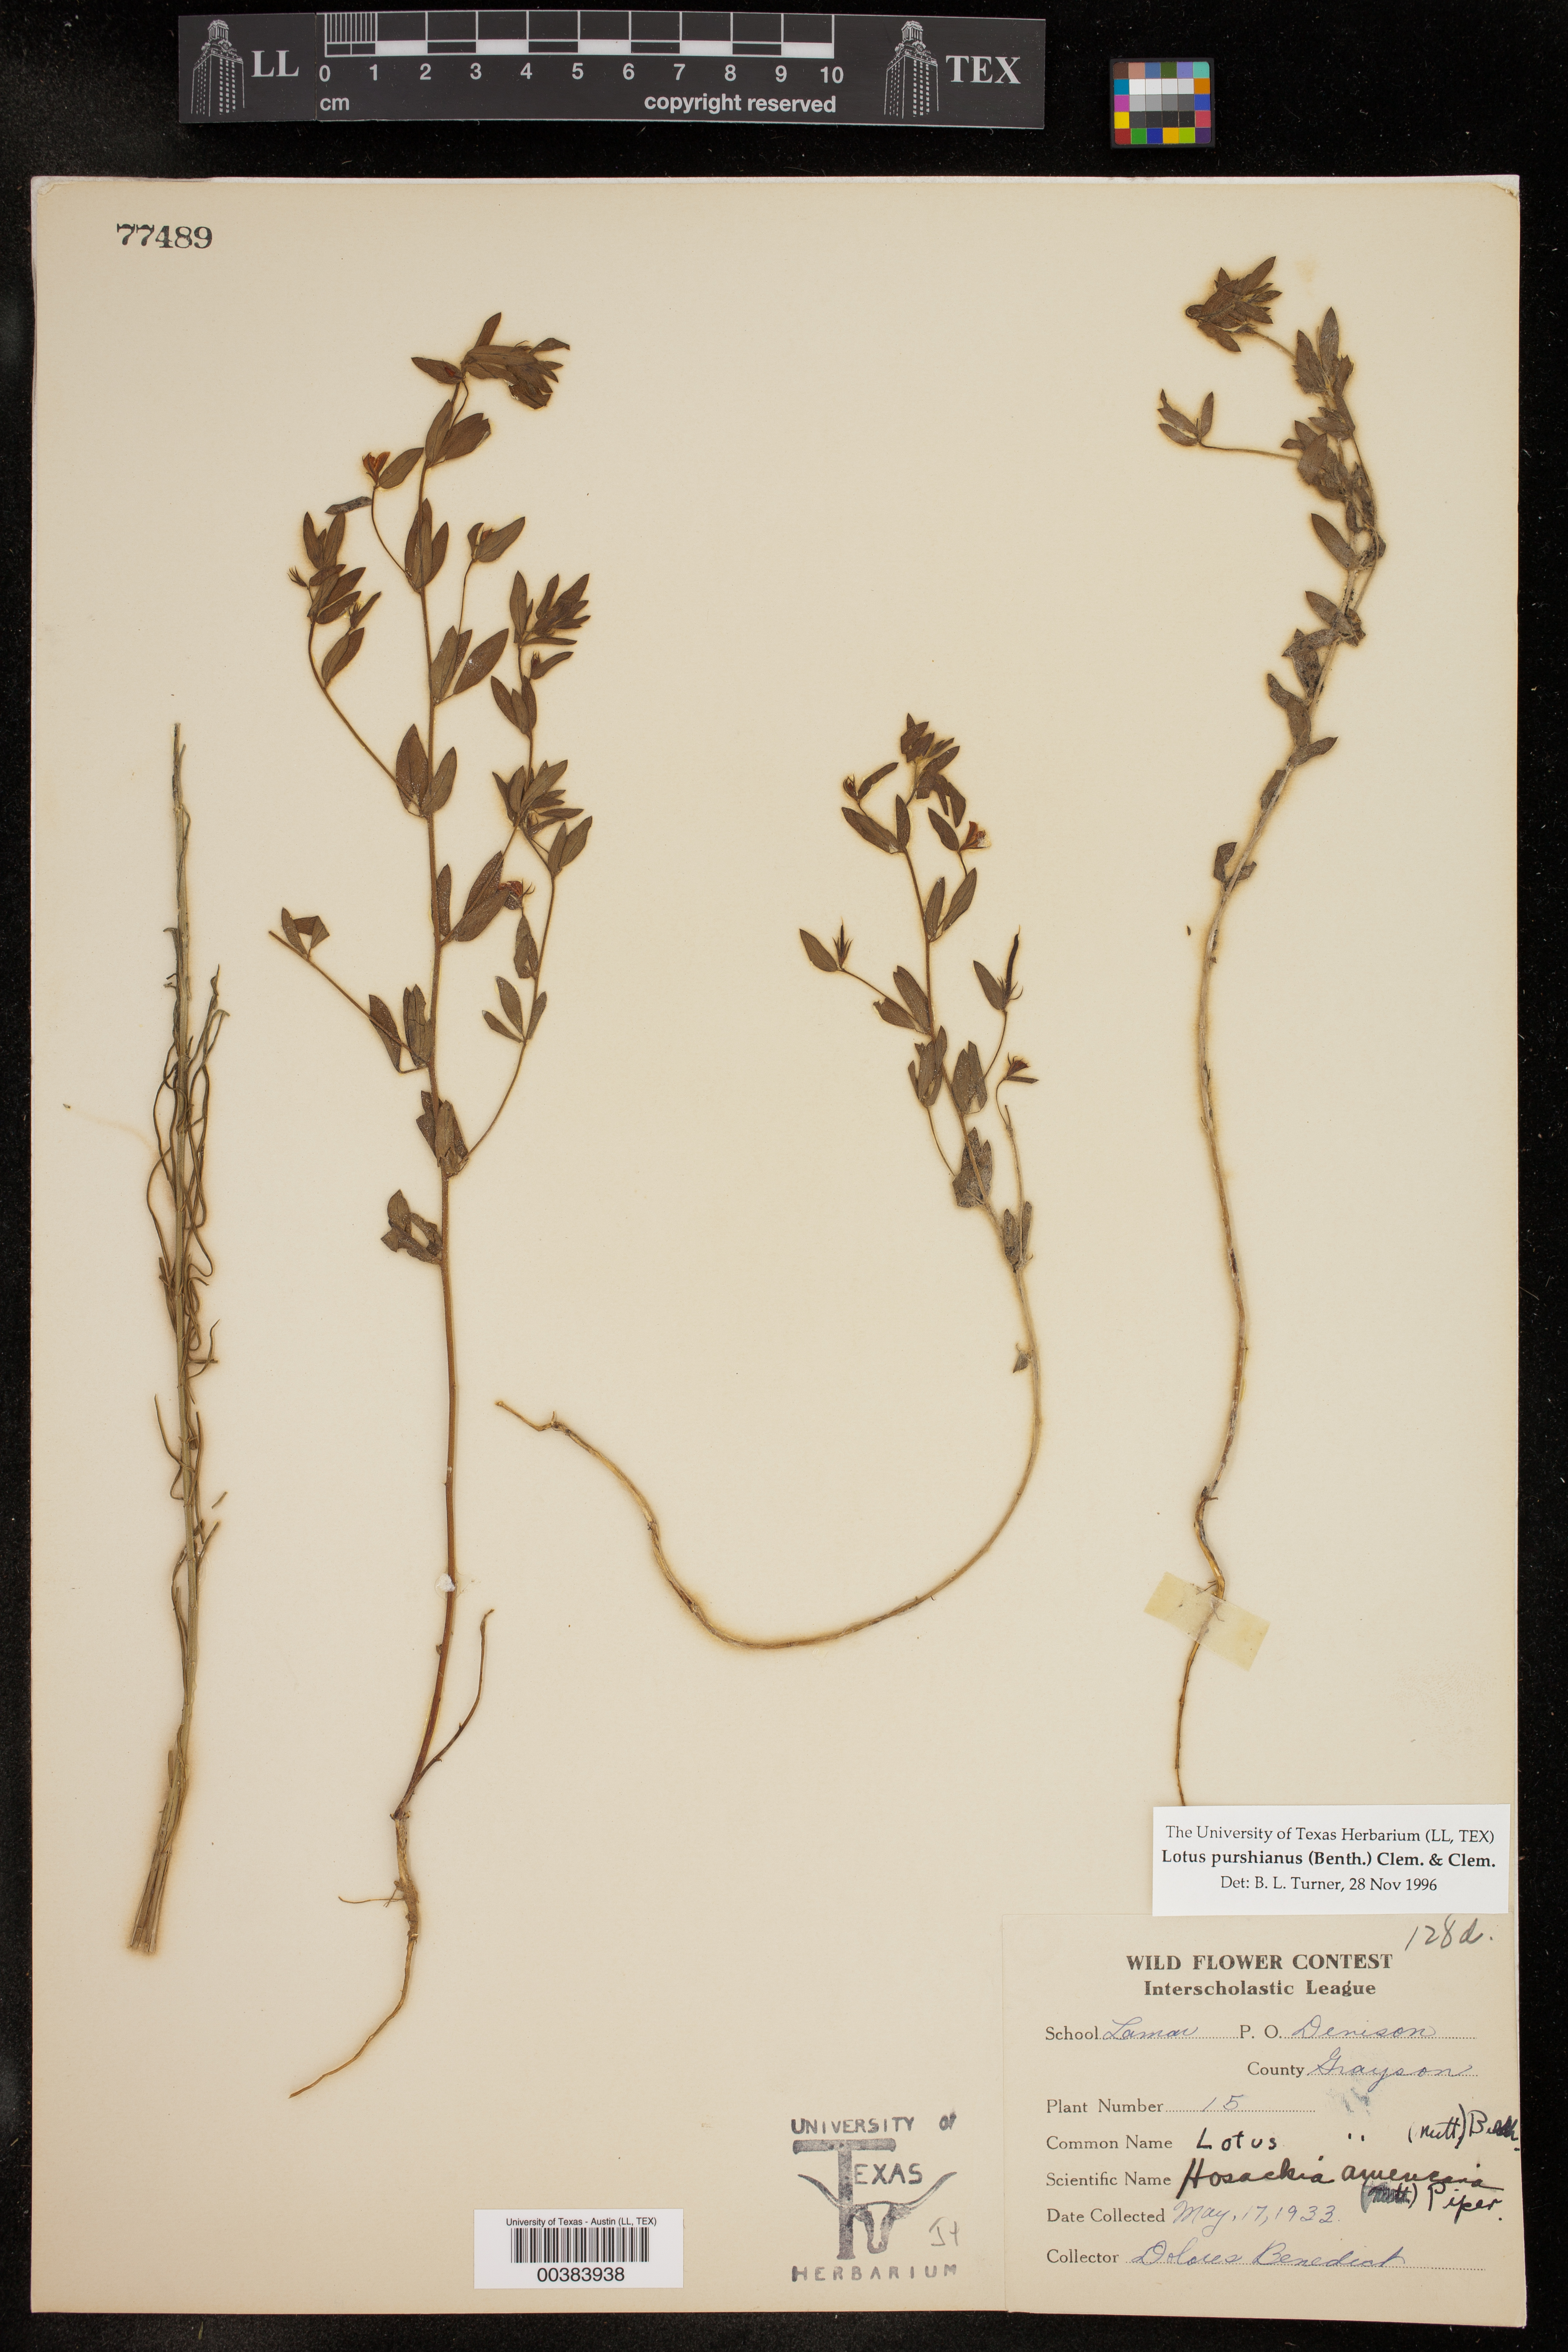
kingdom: Plantae
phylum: Tracheophyta
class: Magnoliopsida
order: Fabales
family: Fabaceae
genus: Acmispon
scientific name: Acmispon americanus
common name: American bird's-foot trefoil
